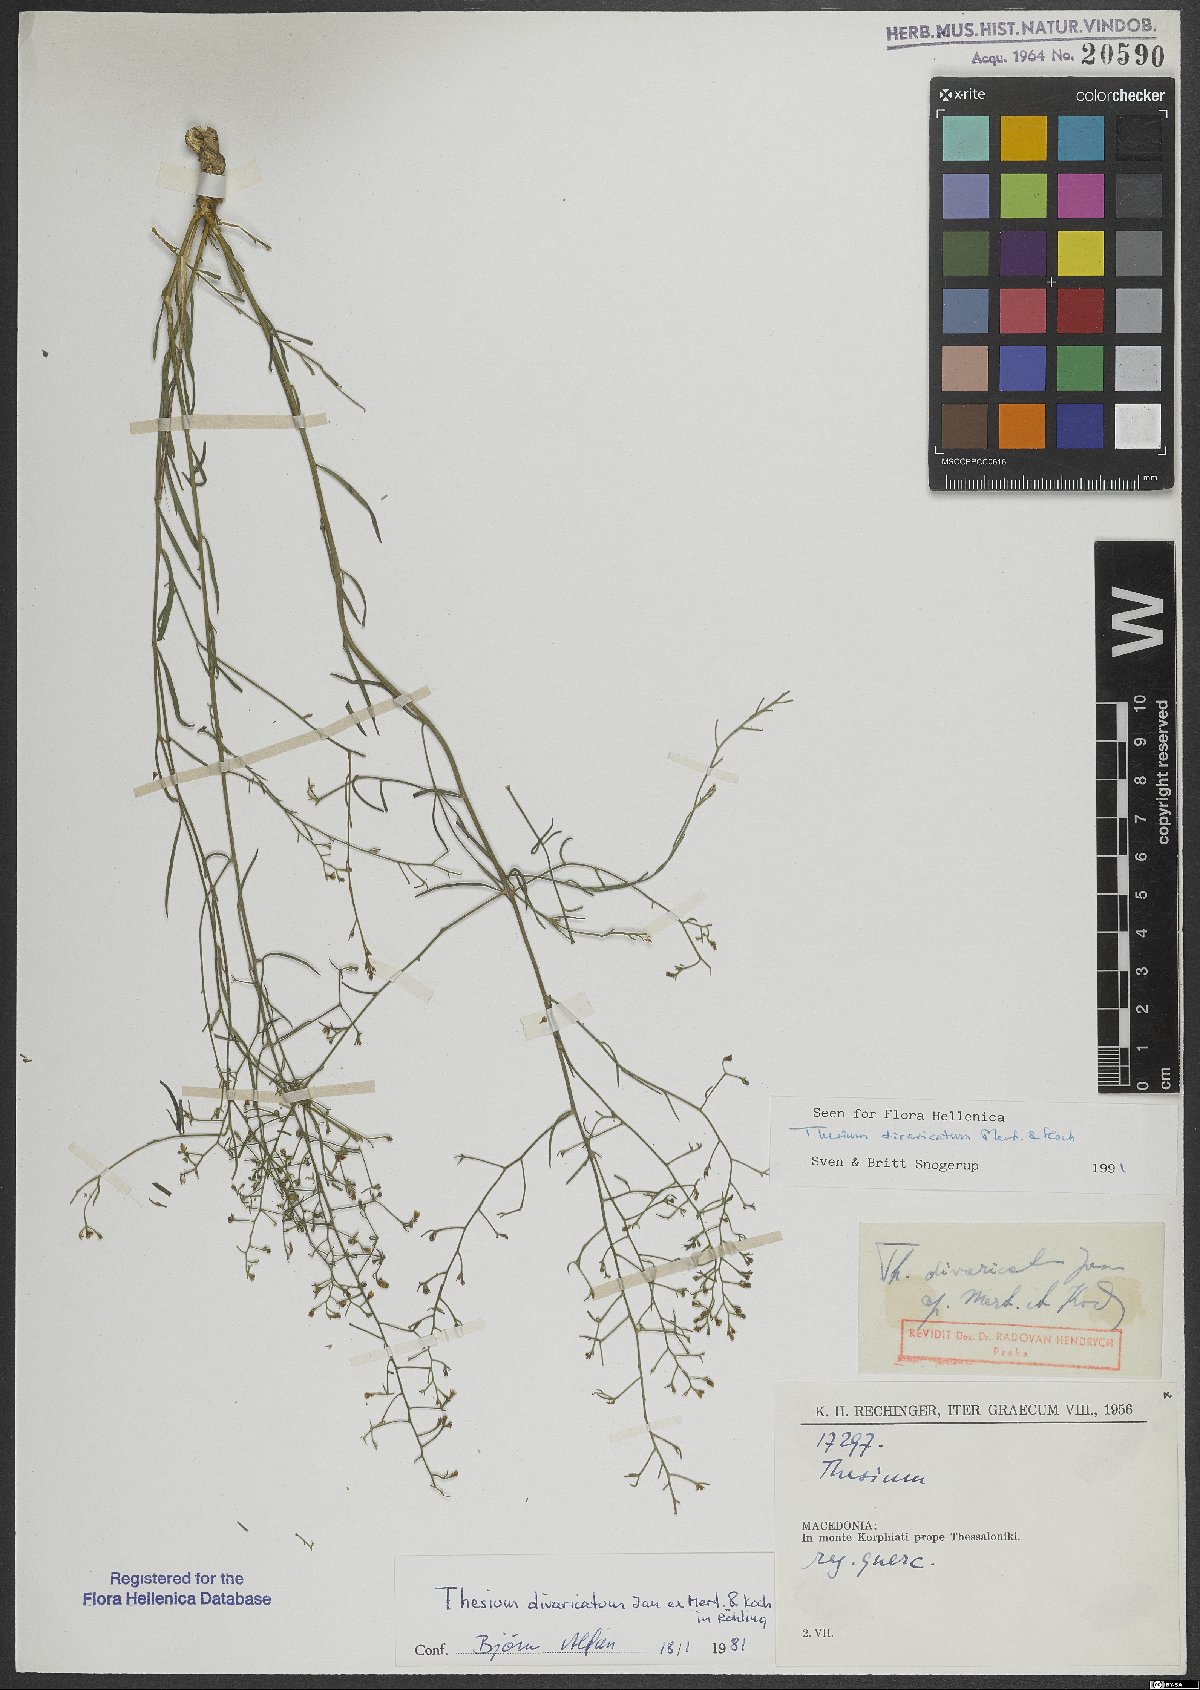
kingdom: Plantae
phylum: Tracheophyta
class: Magnoliopsida
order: Santalales
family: Thesiaceae
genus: Thesium
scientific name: Thesium divaricatum
